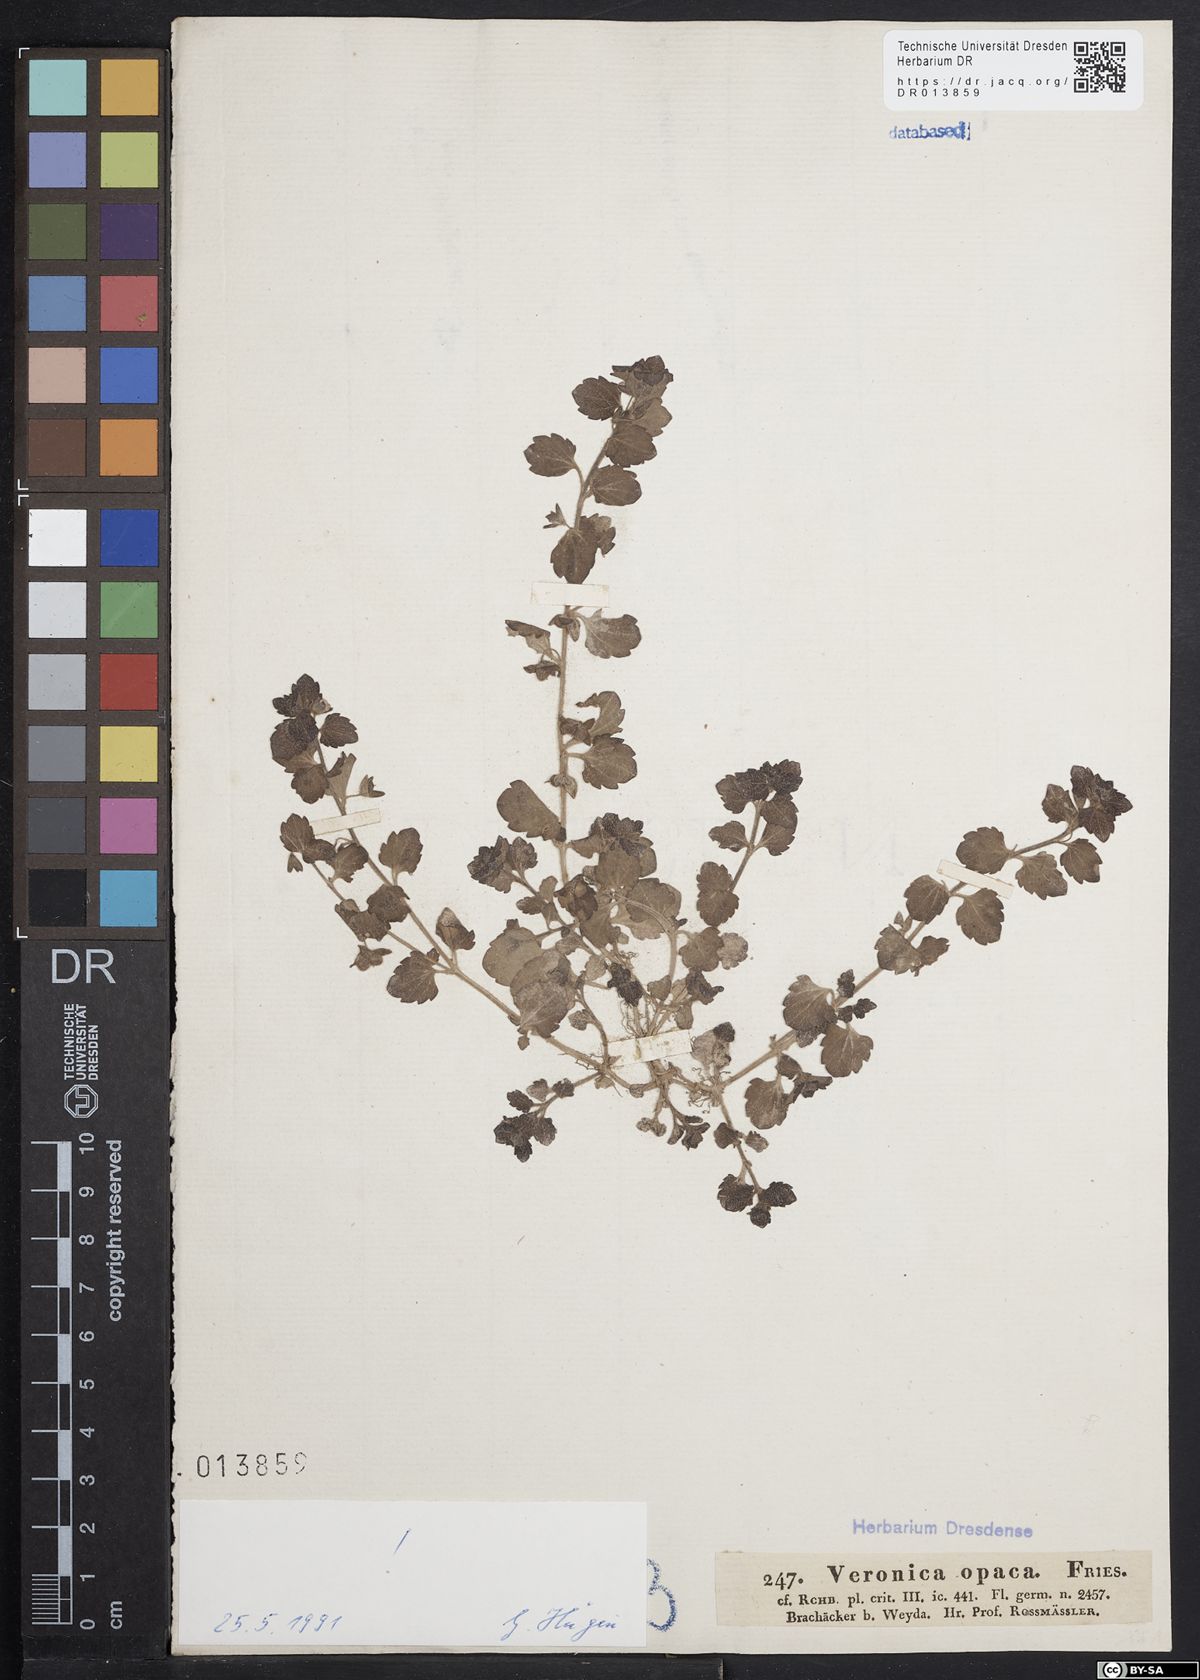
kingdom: Plantae
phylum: Tracheophyta
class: Magnoliopsida
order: Lamiales
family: Plantaginaceae
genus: Veronica
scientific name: Veronica opaca
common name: Dark speedwell
